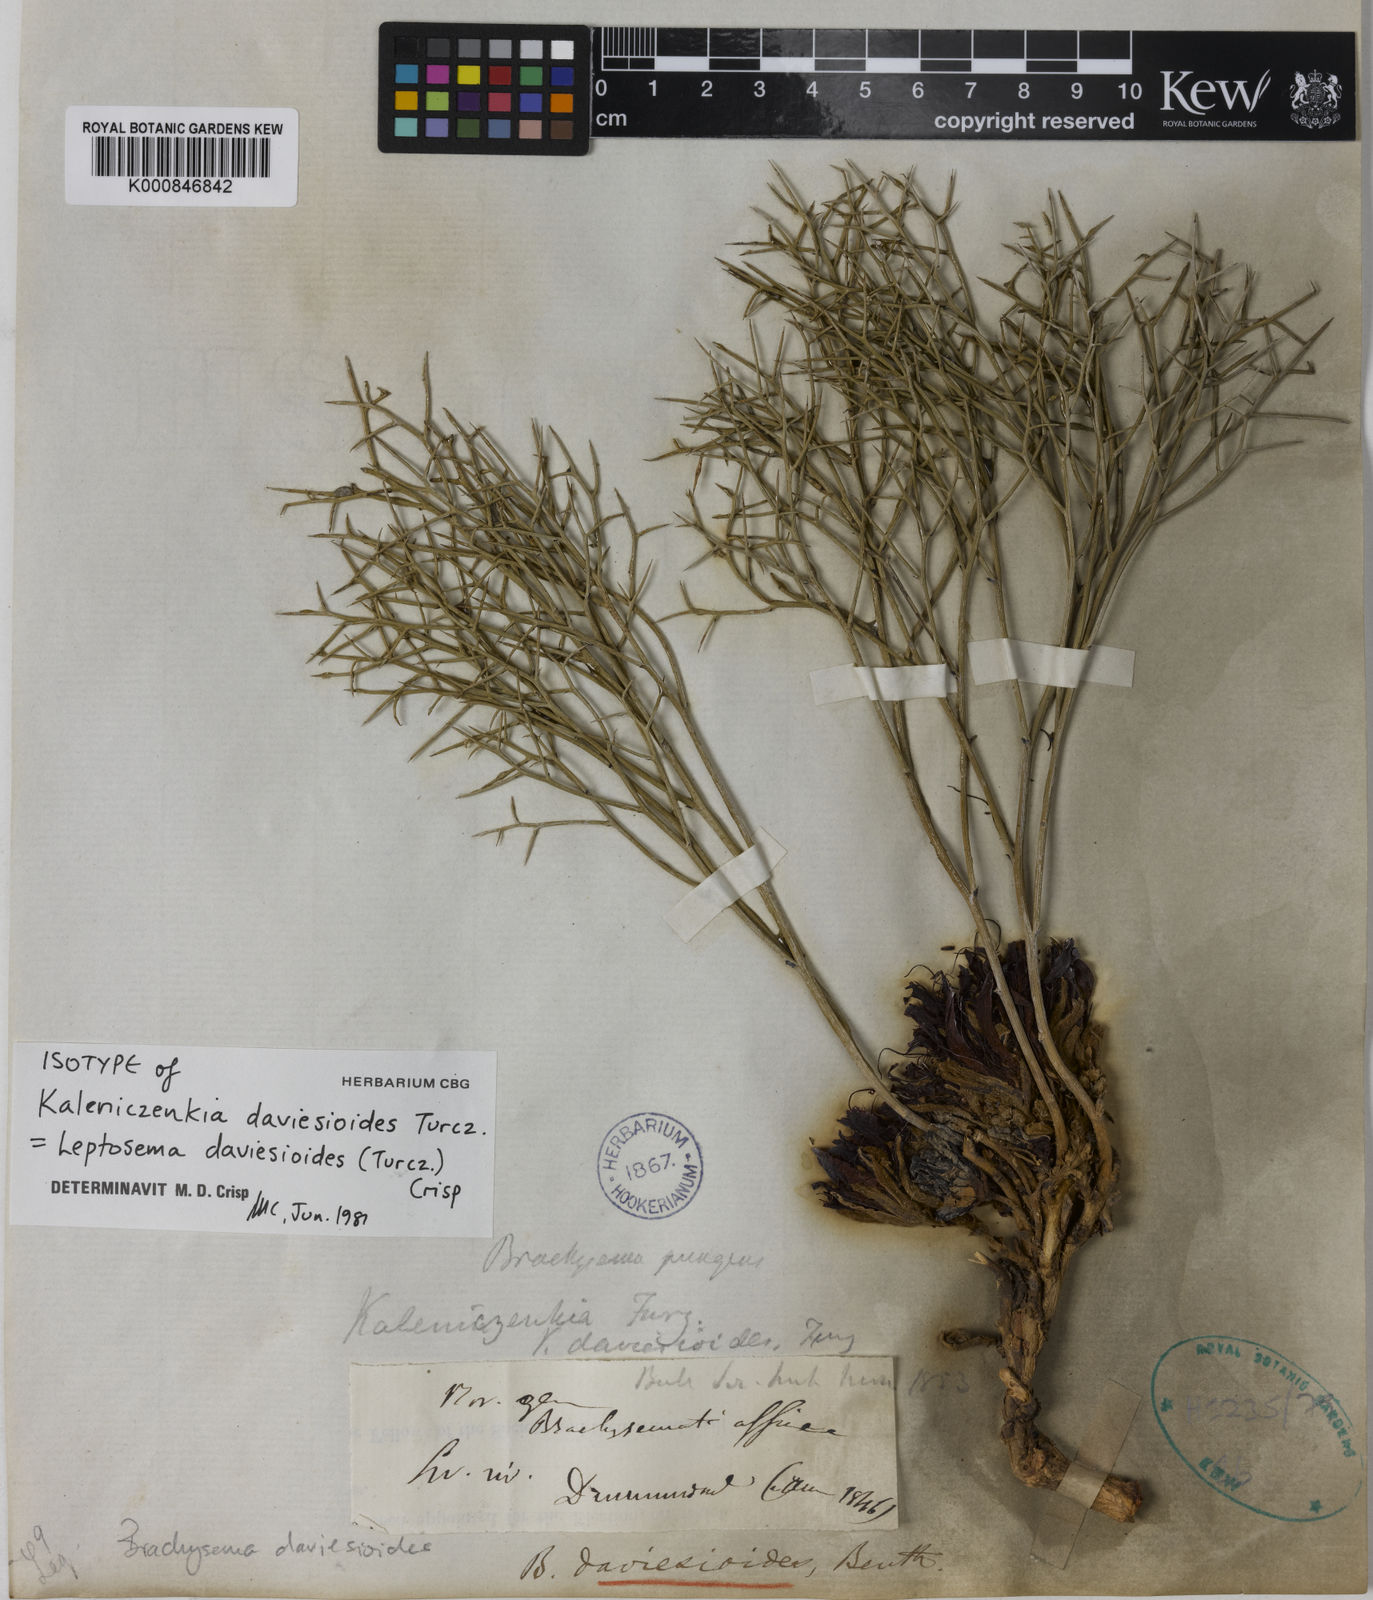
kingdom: Plantae
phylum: Tracheophyta
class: Magnoliopsida
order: Fabales
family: Fabaceae
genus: Leptosema
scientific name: Leptosema daviesioides
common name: Upside-down pea-bush
